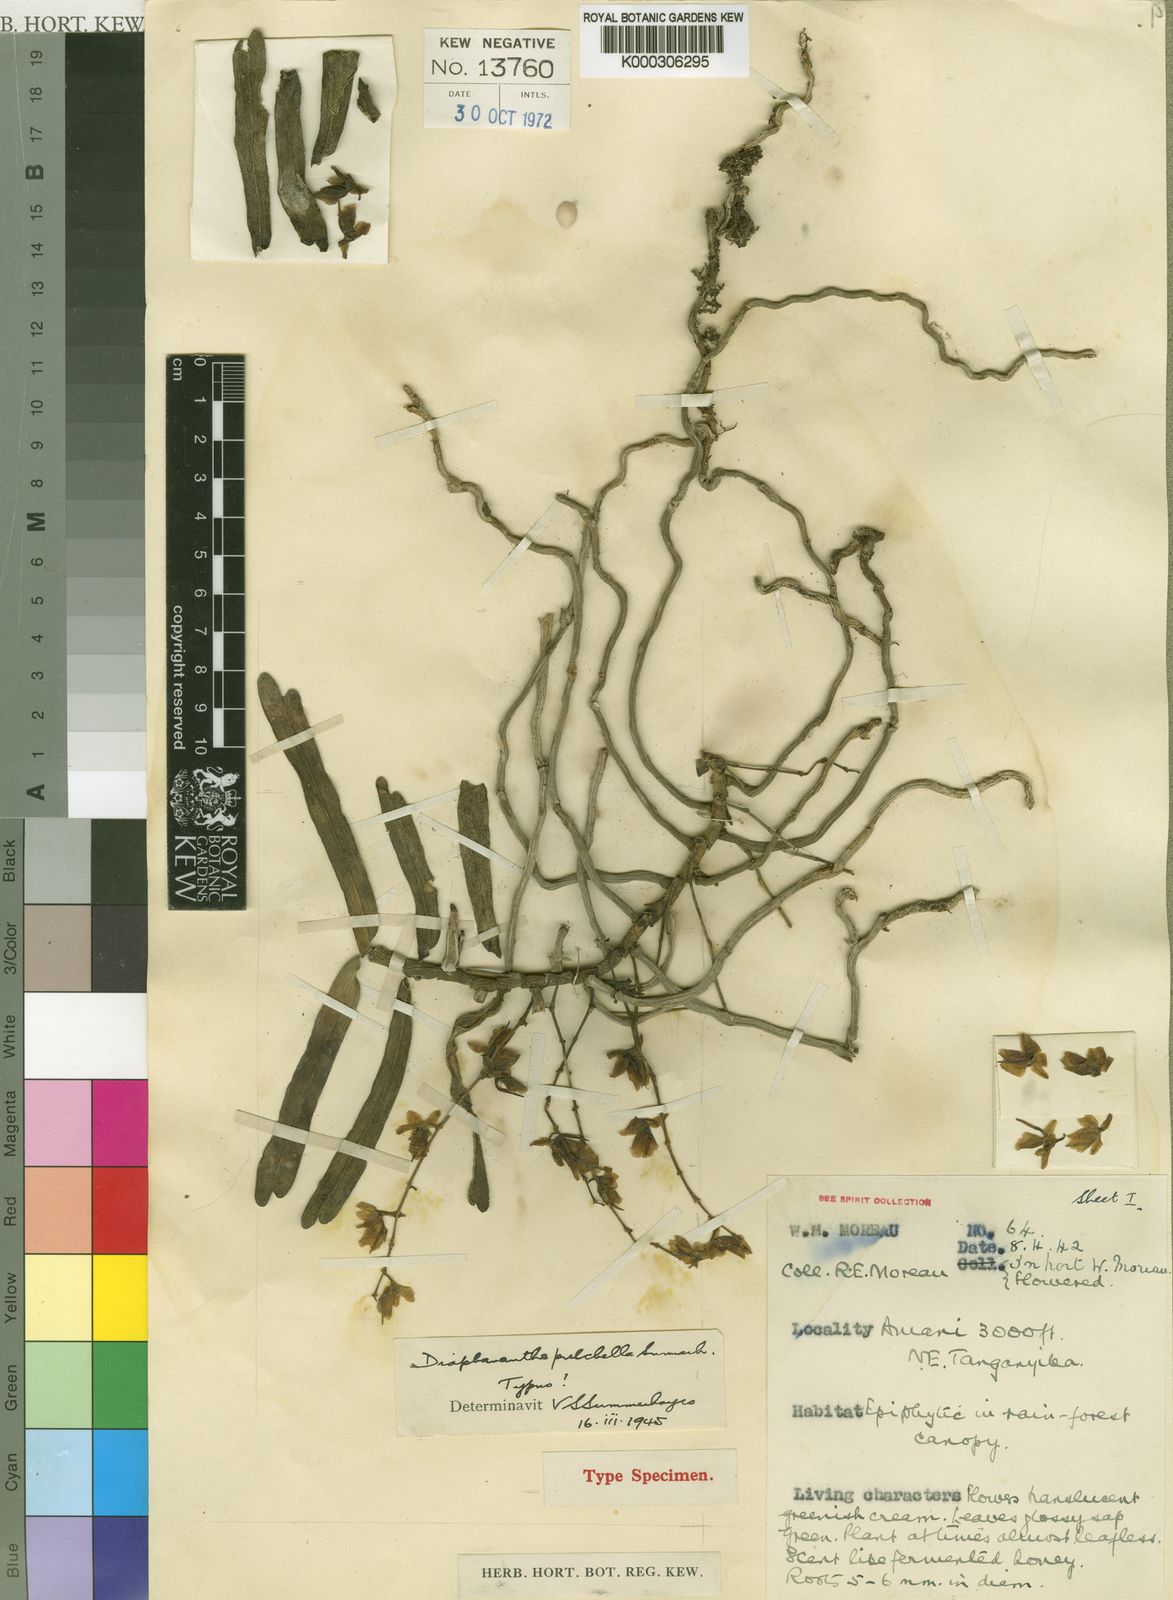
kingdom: Plantae
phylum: Tracheophyta
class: Liliopsida
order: Asparagales
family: Orchidaceae
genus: Rhipidoglossum
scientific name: Rhipidoglossum pulchellum
